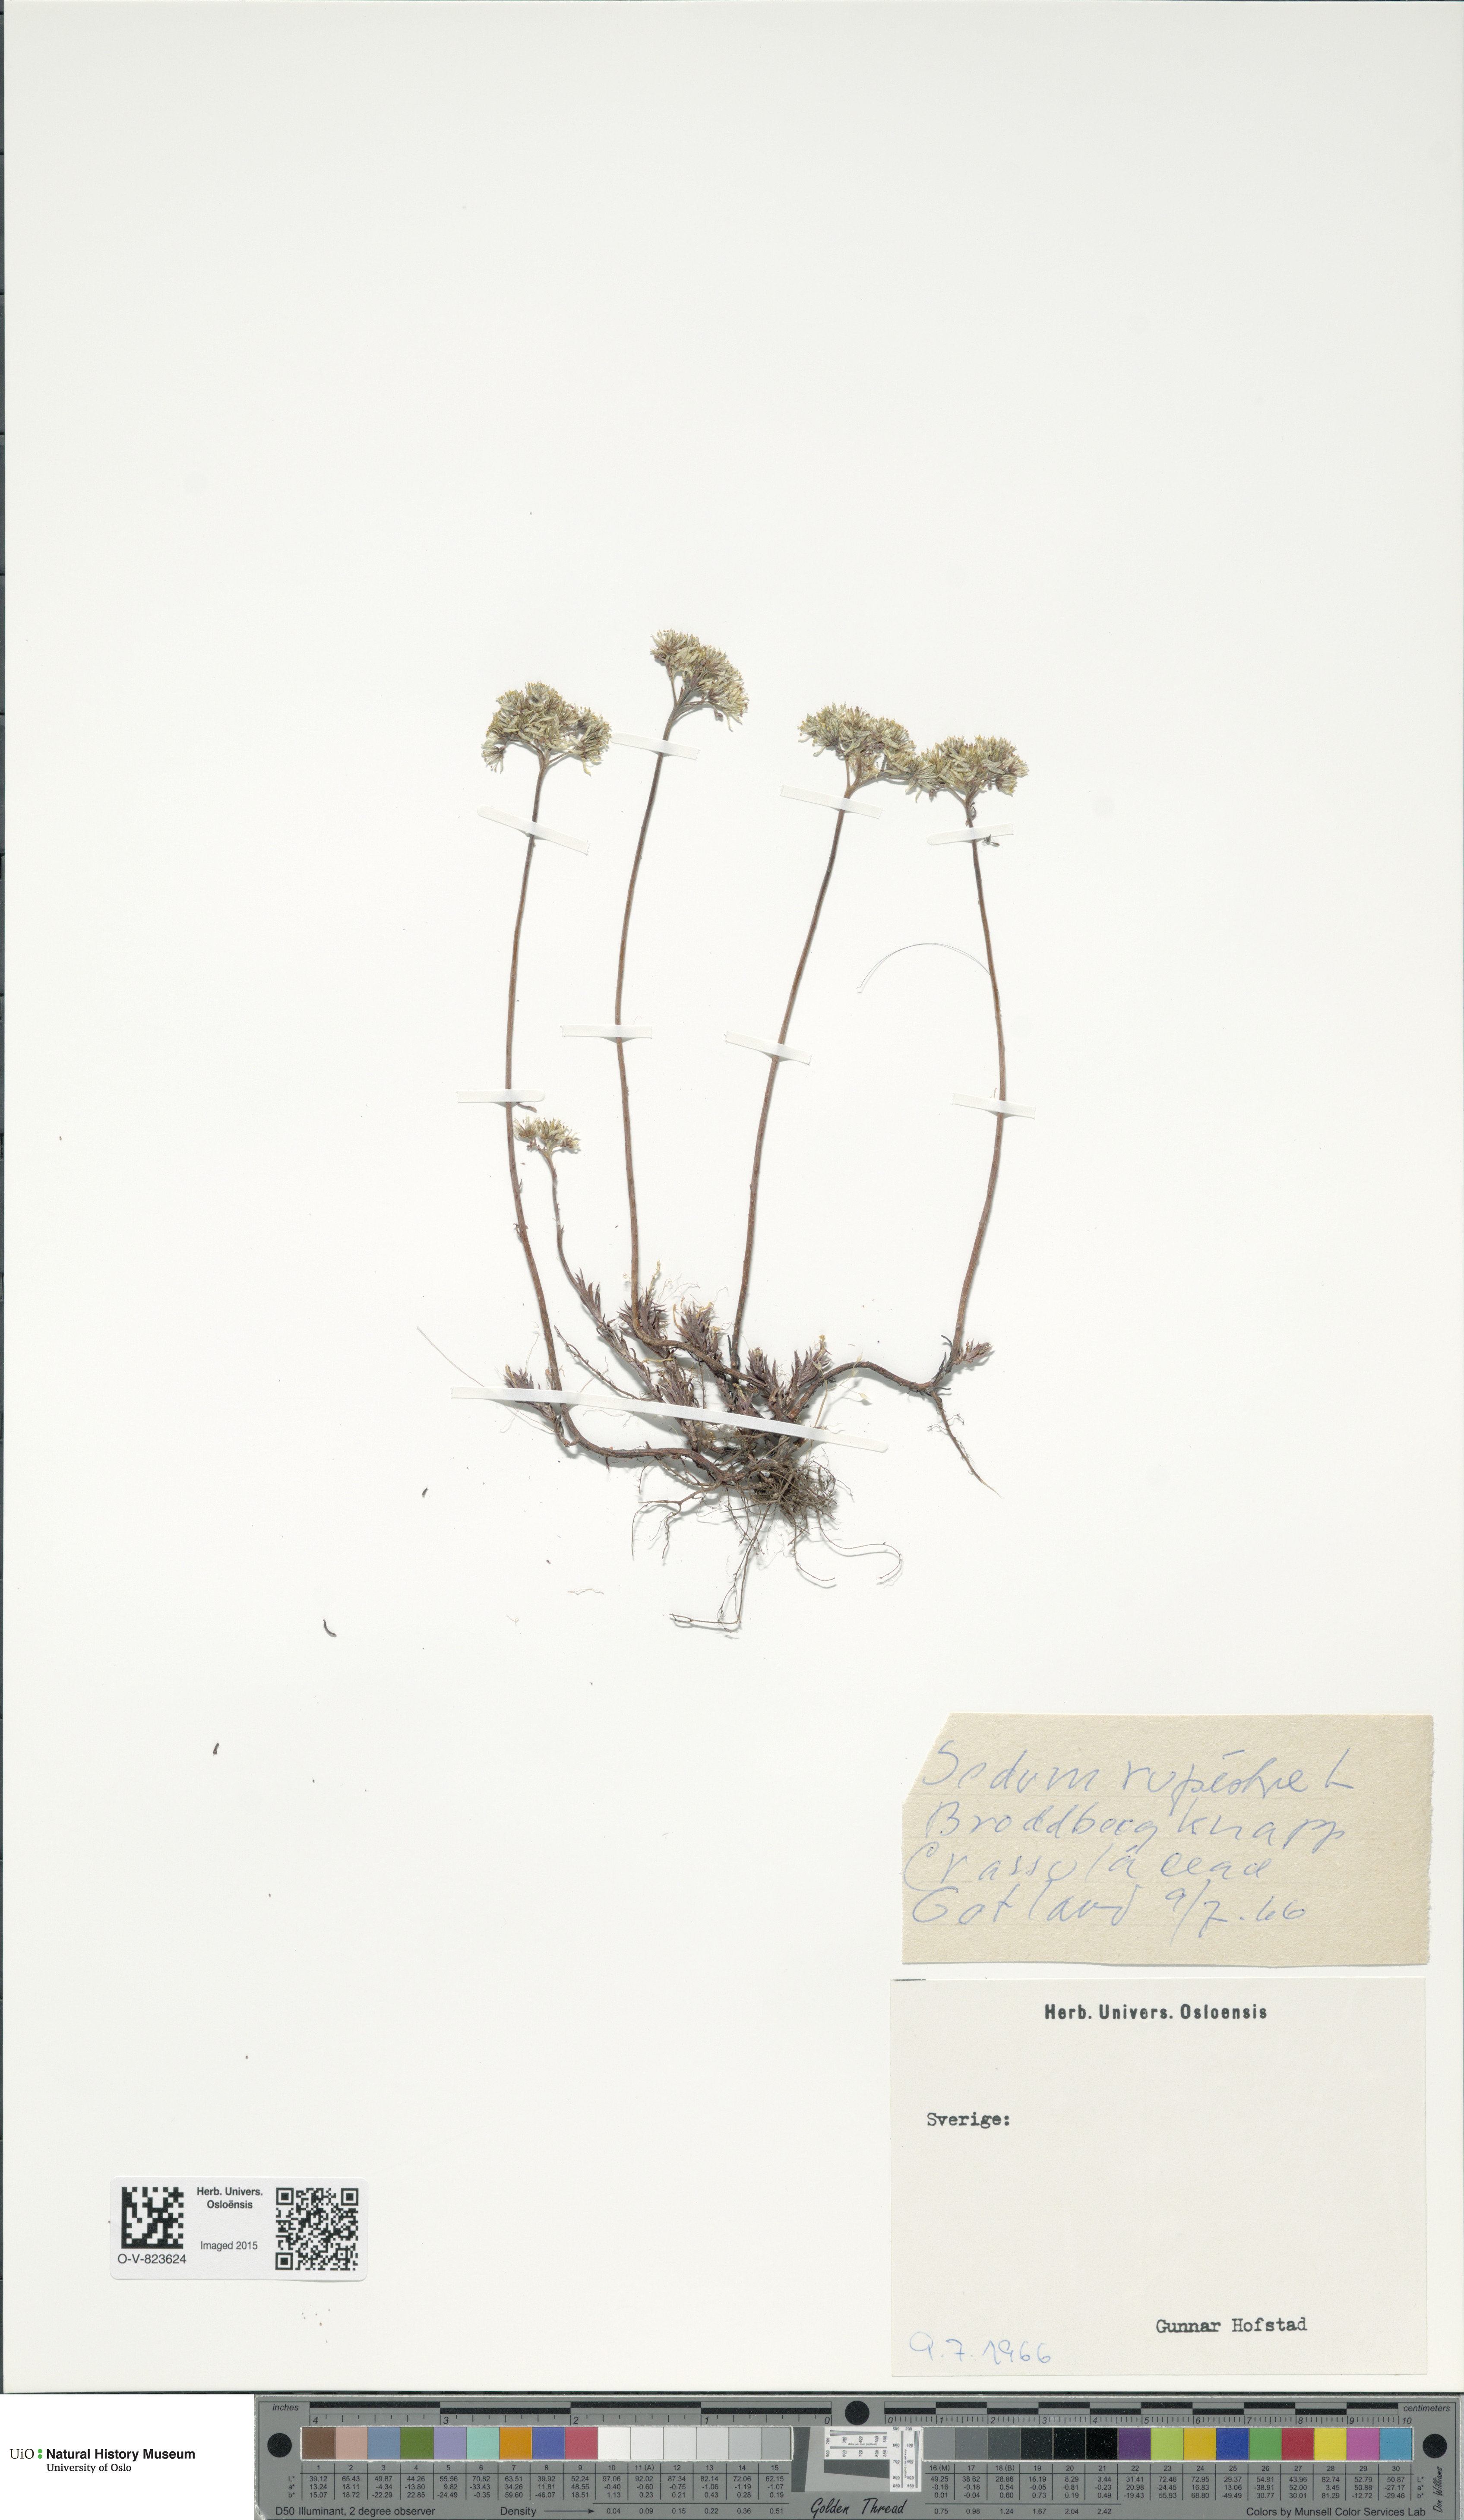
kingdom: Plantae
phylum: Tracheophyta
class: Magnoliopsida
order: Saxifragales
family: Crassulaceae
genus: Petrosedum
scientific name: Petrosedum rupestre
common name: Jenny's stonecrop
